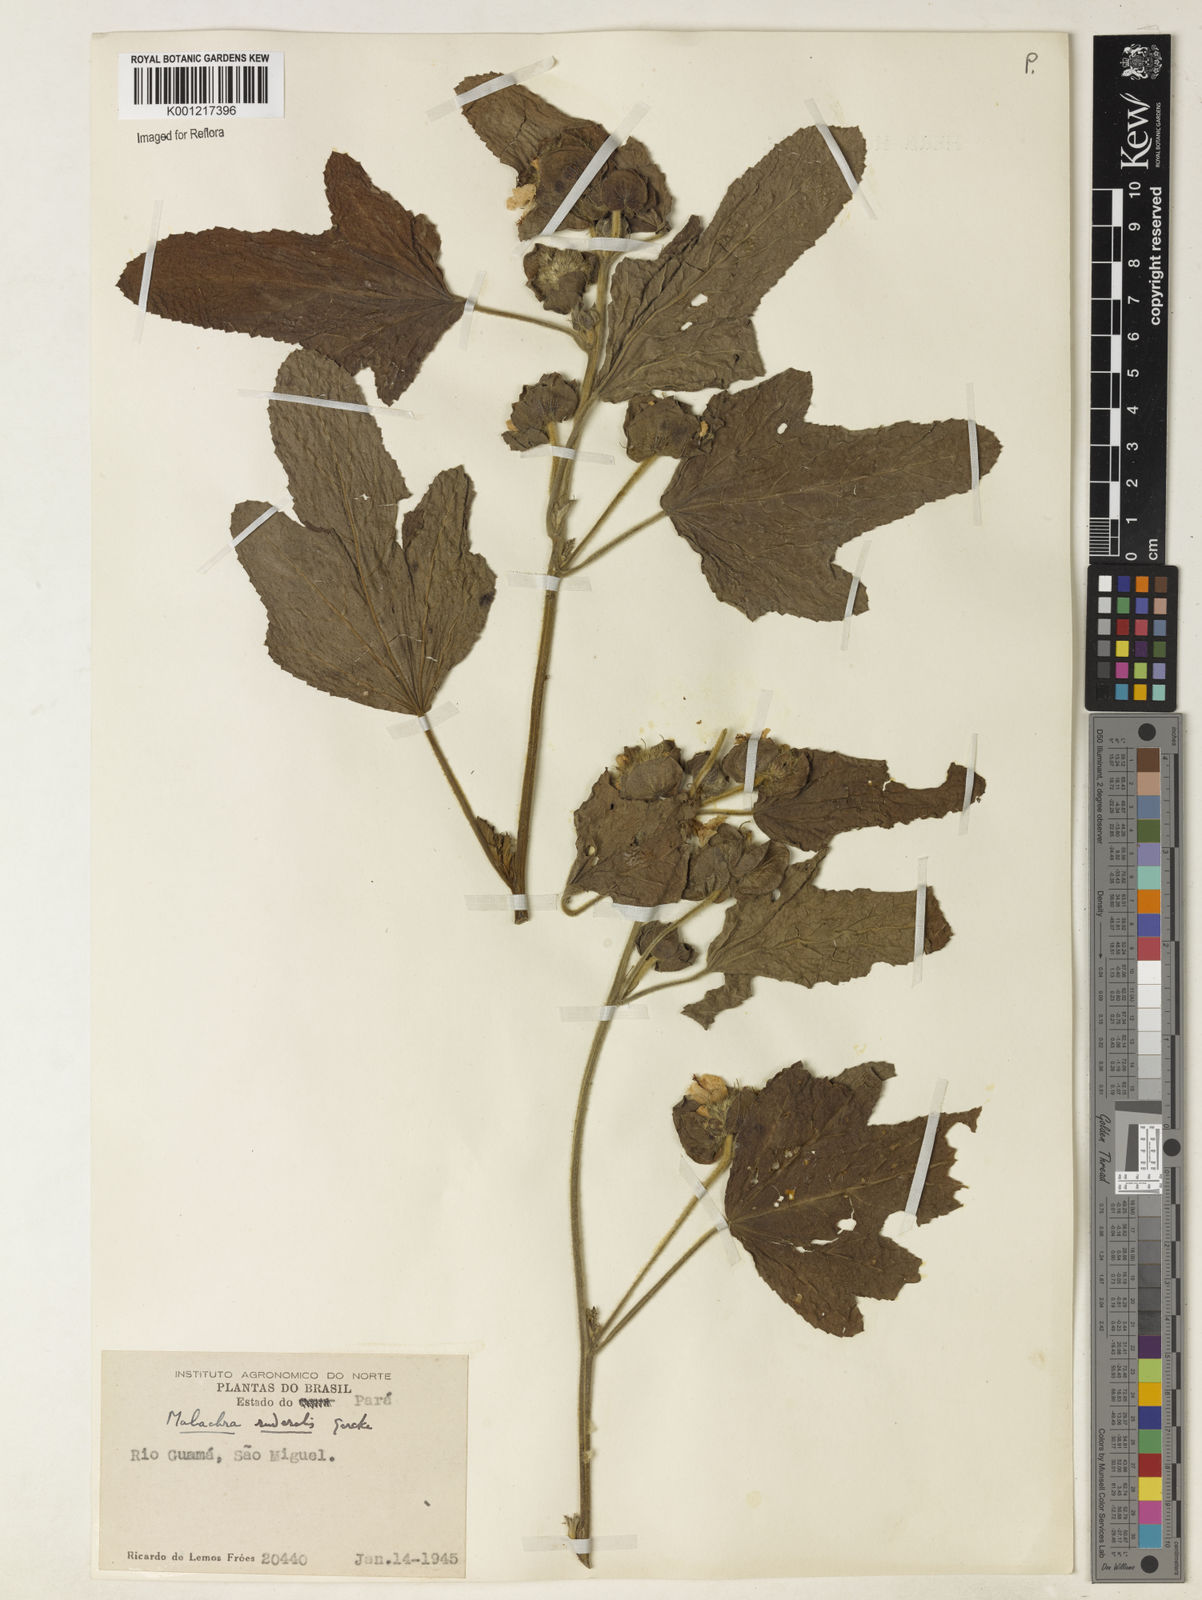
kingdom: Plantae
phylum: Tracheophyta
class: Magnoliopsida
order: Malvales
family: Malvaceae
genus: Malachra
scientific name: Malachra
